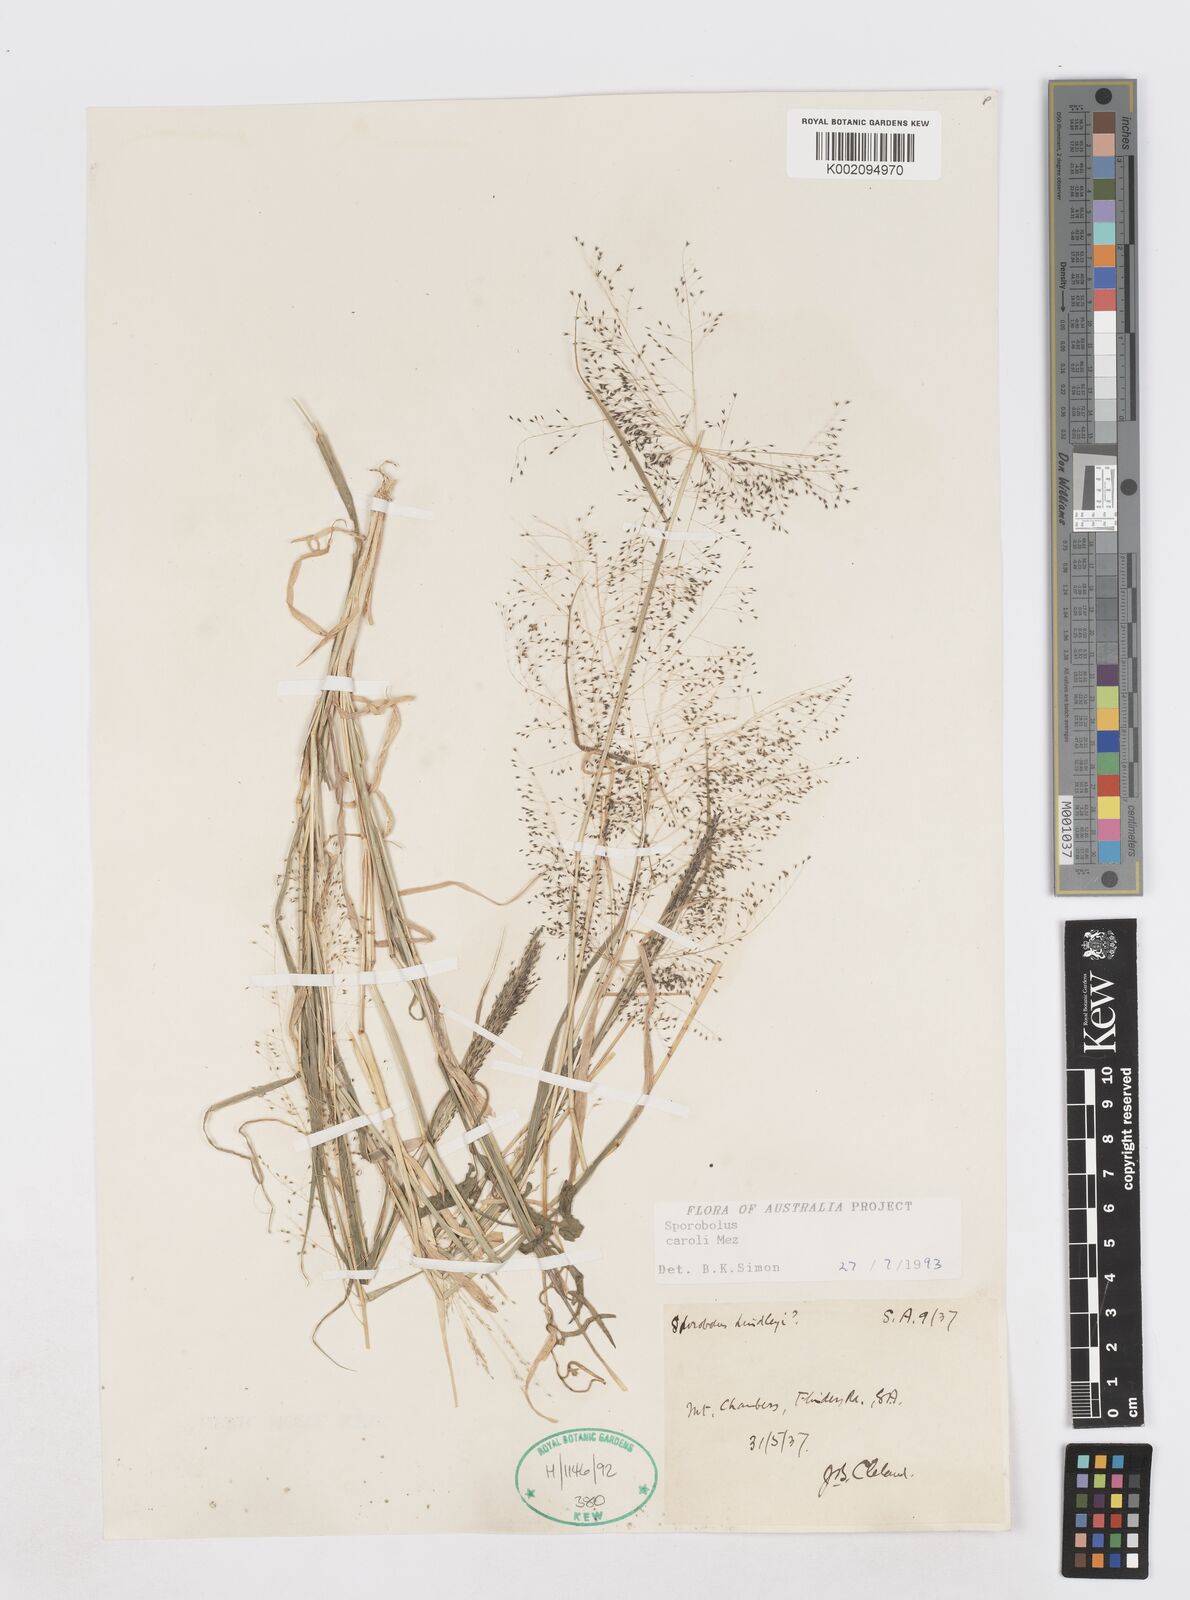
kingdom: Plantae
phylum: Tracheophyta
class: Liliopsida
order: Poales
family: Poaceae
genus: Sporobolus
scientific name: Sporobolus caroli
